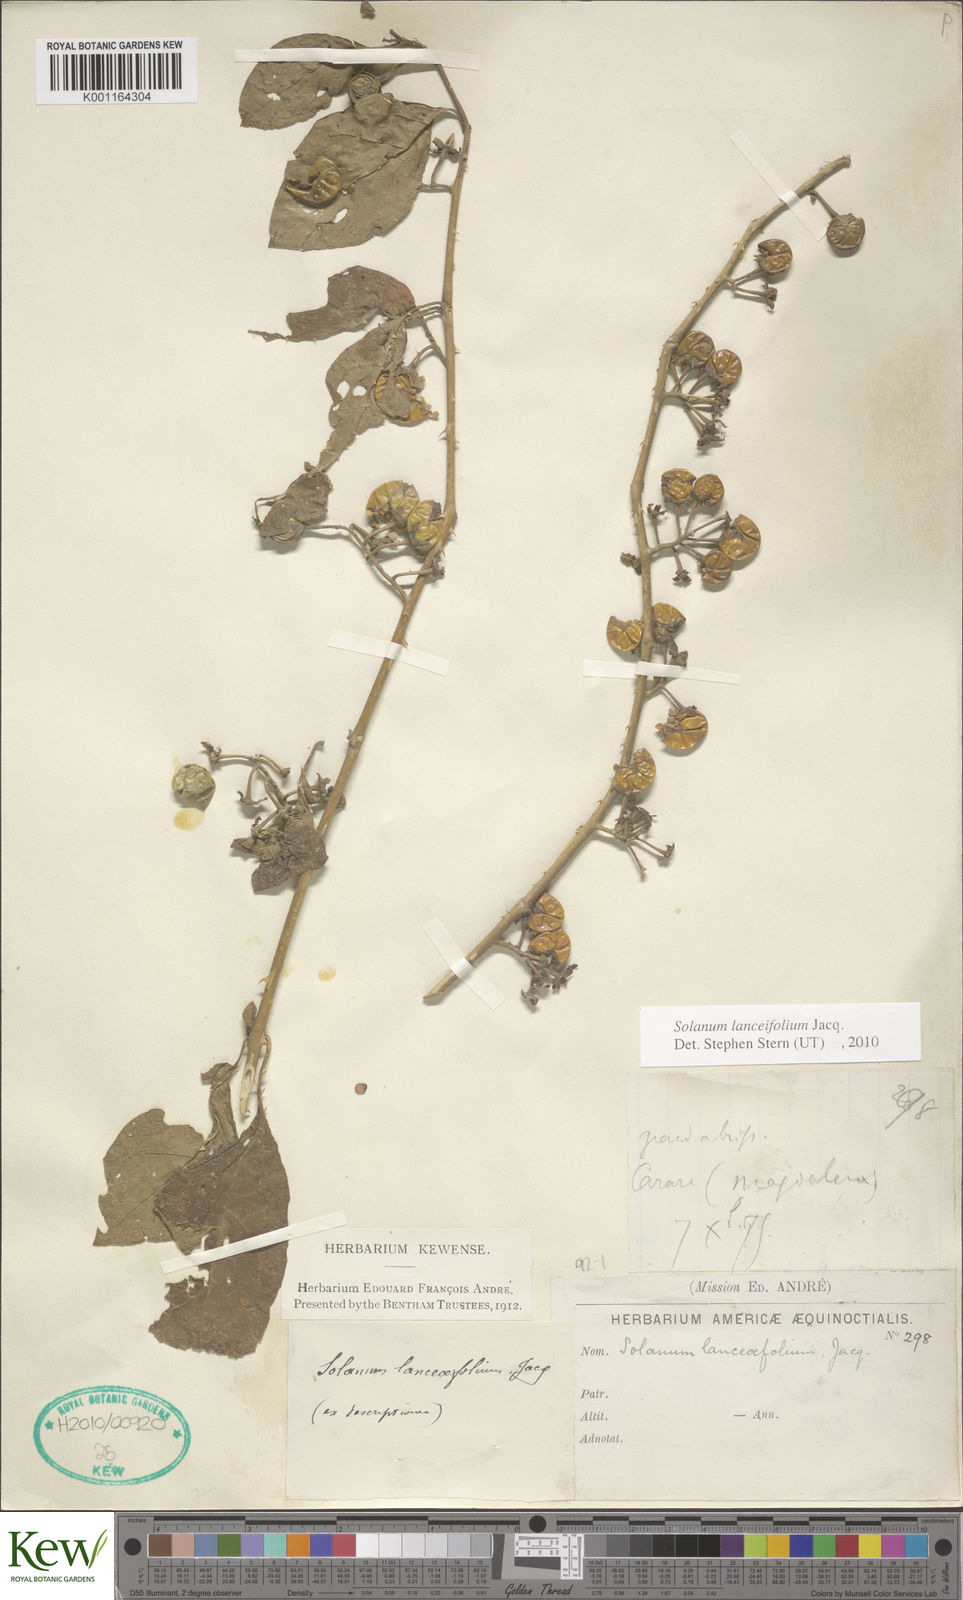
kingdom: Plantae
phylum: Tracheophyta
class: Magnoliopsida
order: Solanales
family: Solanaceae
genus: Solanum
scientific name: Solanum lanceifolium
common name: Lanceleaf nightshade
